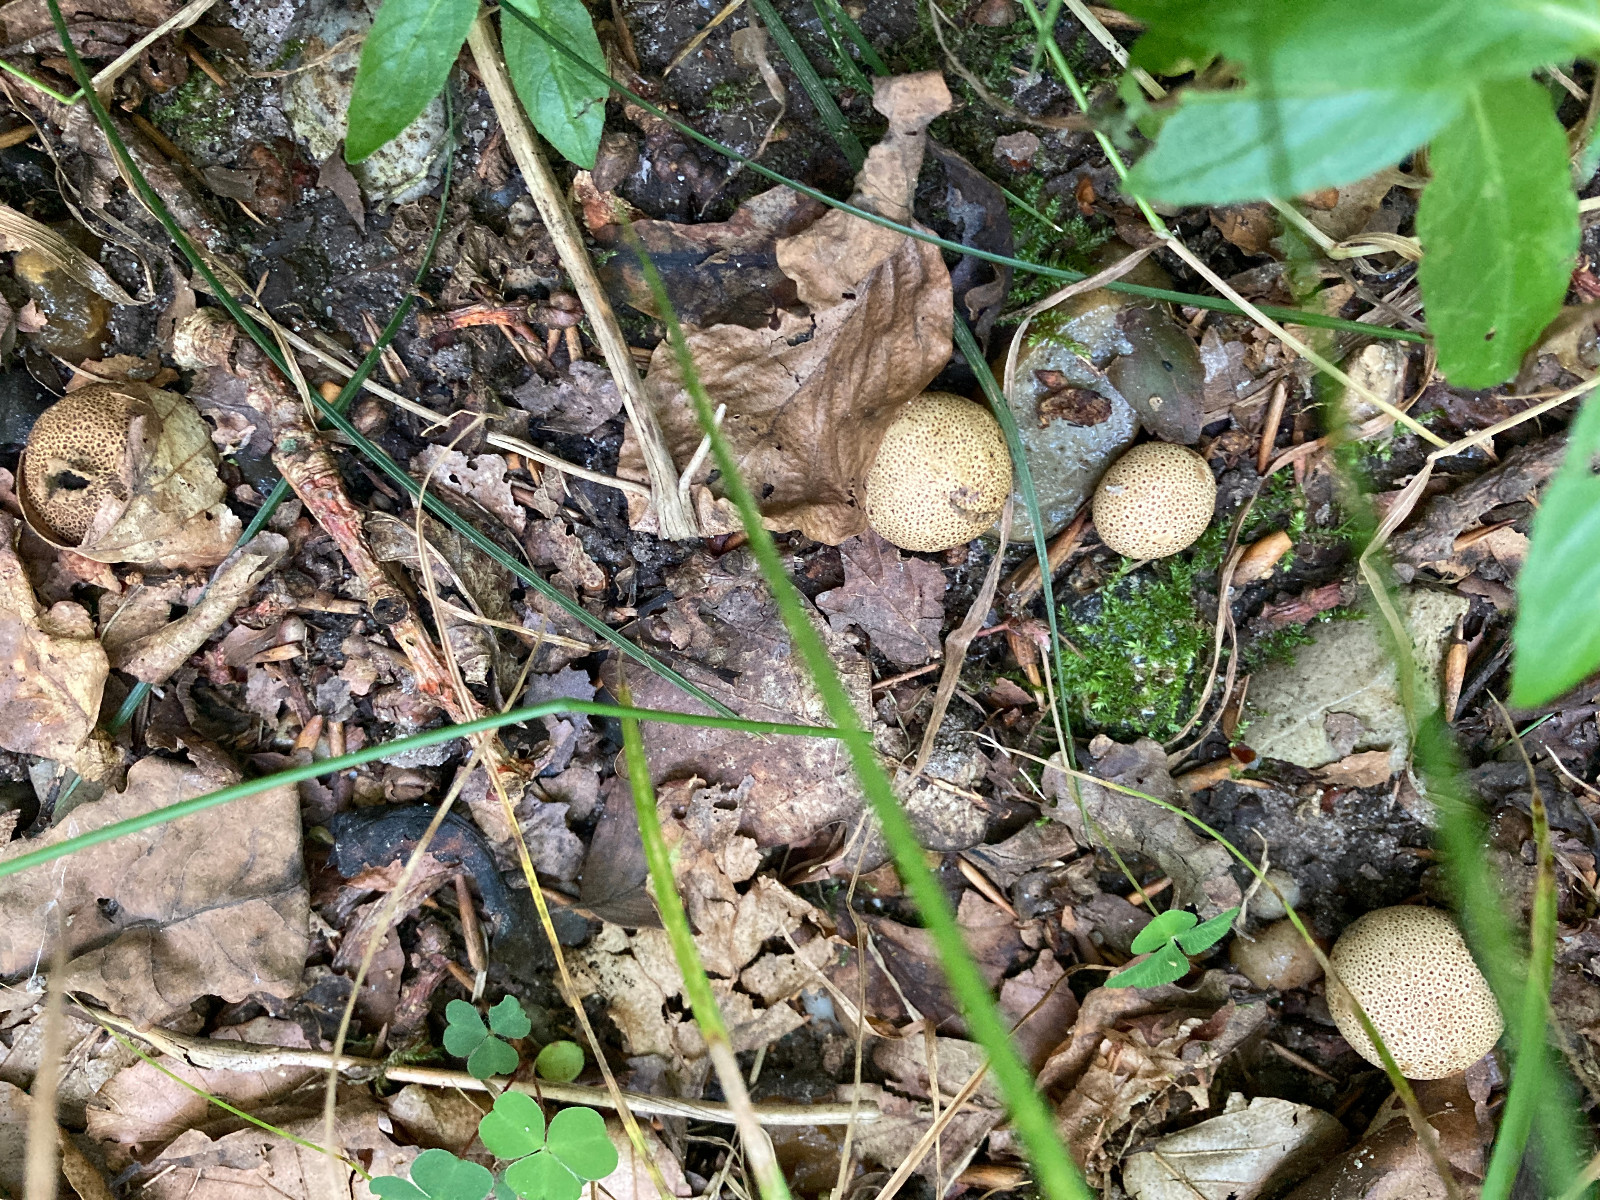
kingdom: Fungi
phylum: Basidiomycota
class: Agaricomycetes
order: Boletales
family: Sclerodermataceae
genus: Scleroderma
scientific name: Scleroderma areolatum
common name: plettet bruskbold
